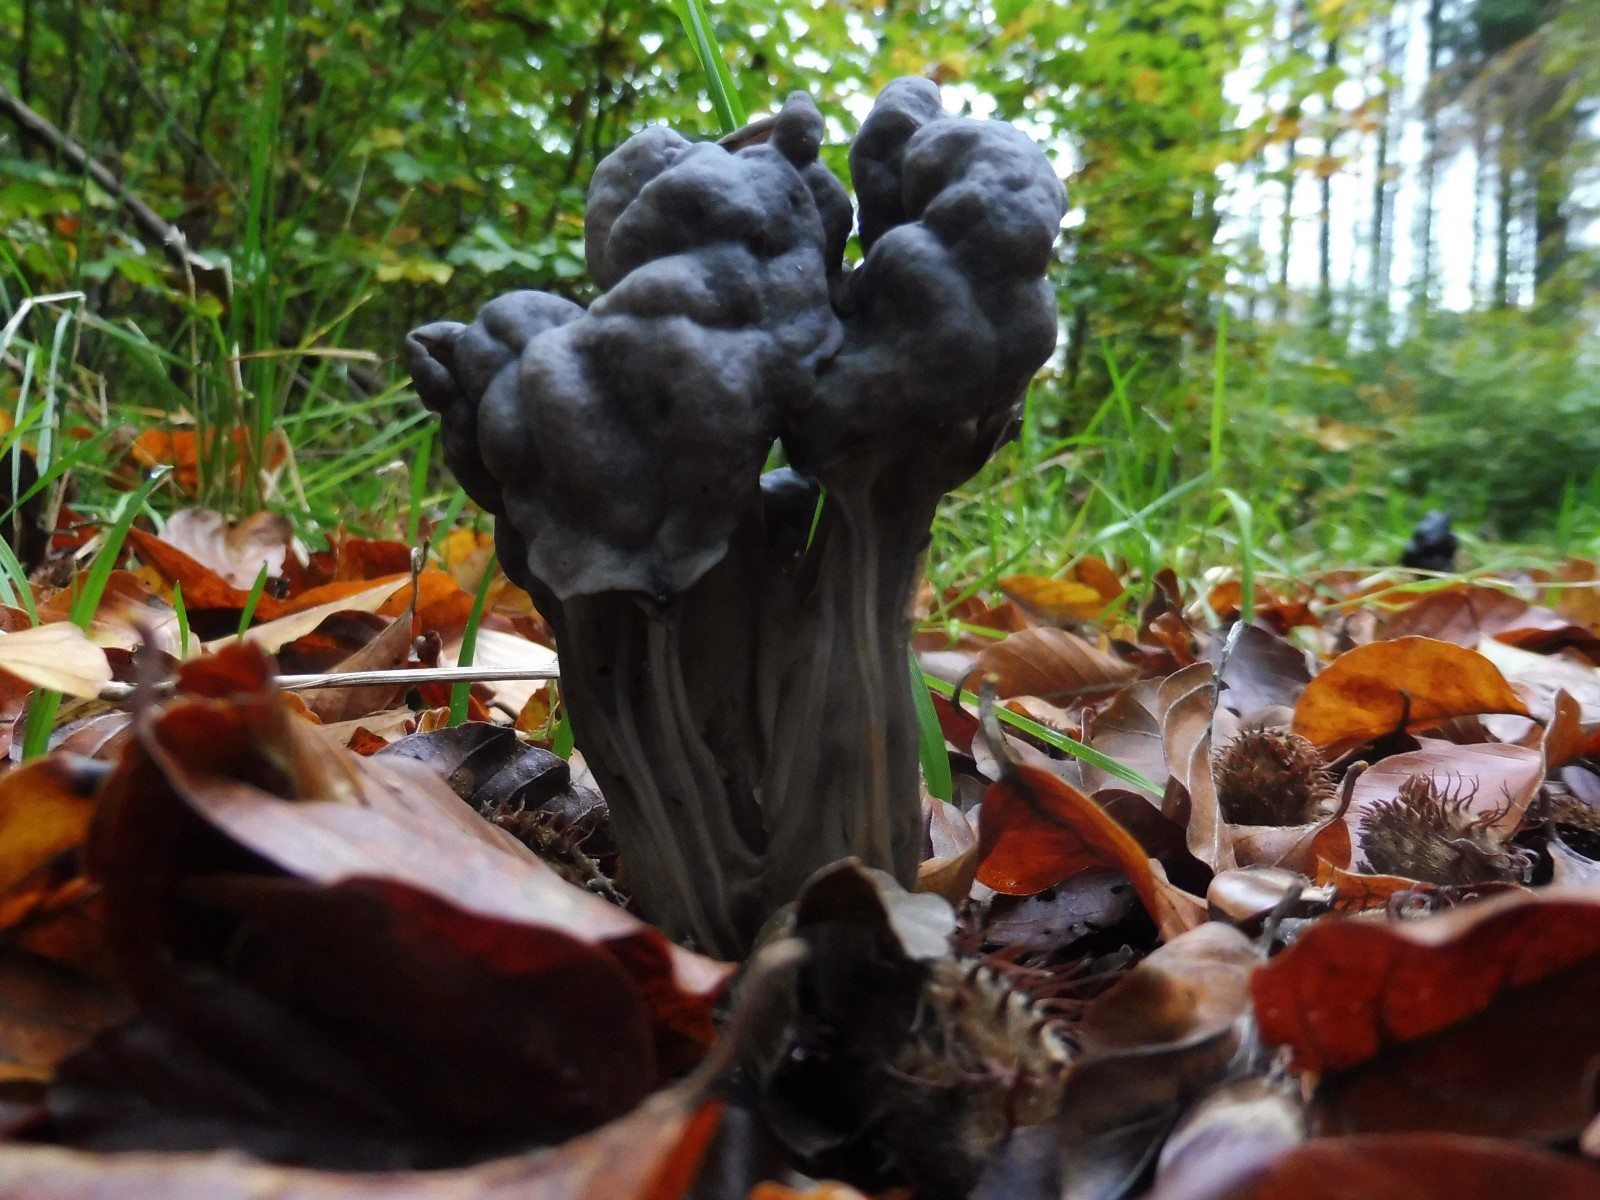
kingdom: Fungi
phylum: Ascomycota
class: Pezizomycetes
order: Pezizales
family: Helvellaceae
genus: Helvella
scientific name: Helvella lacunosa
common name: grubet foldhat
